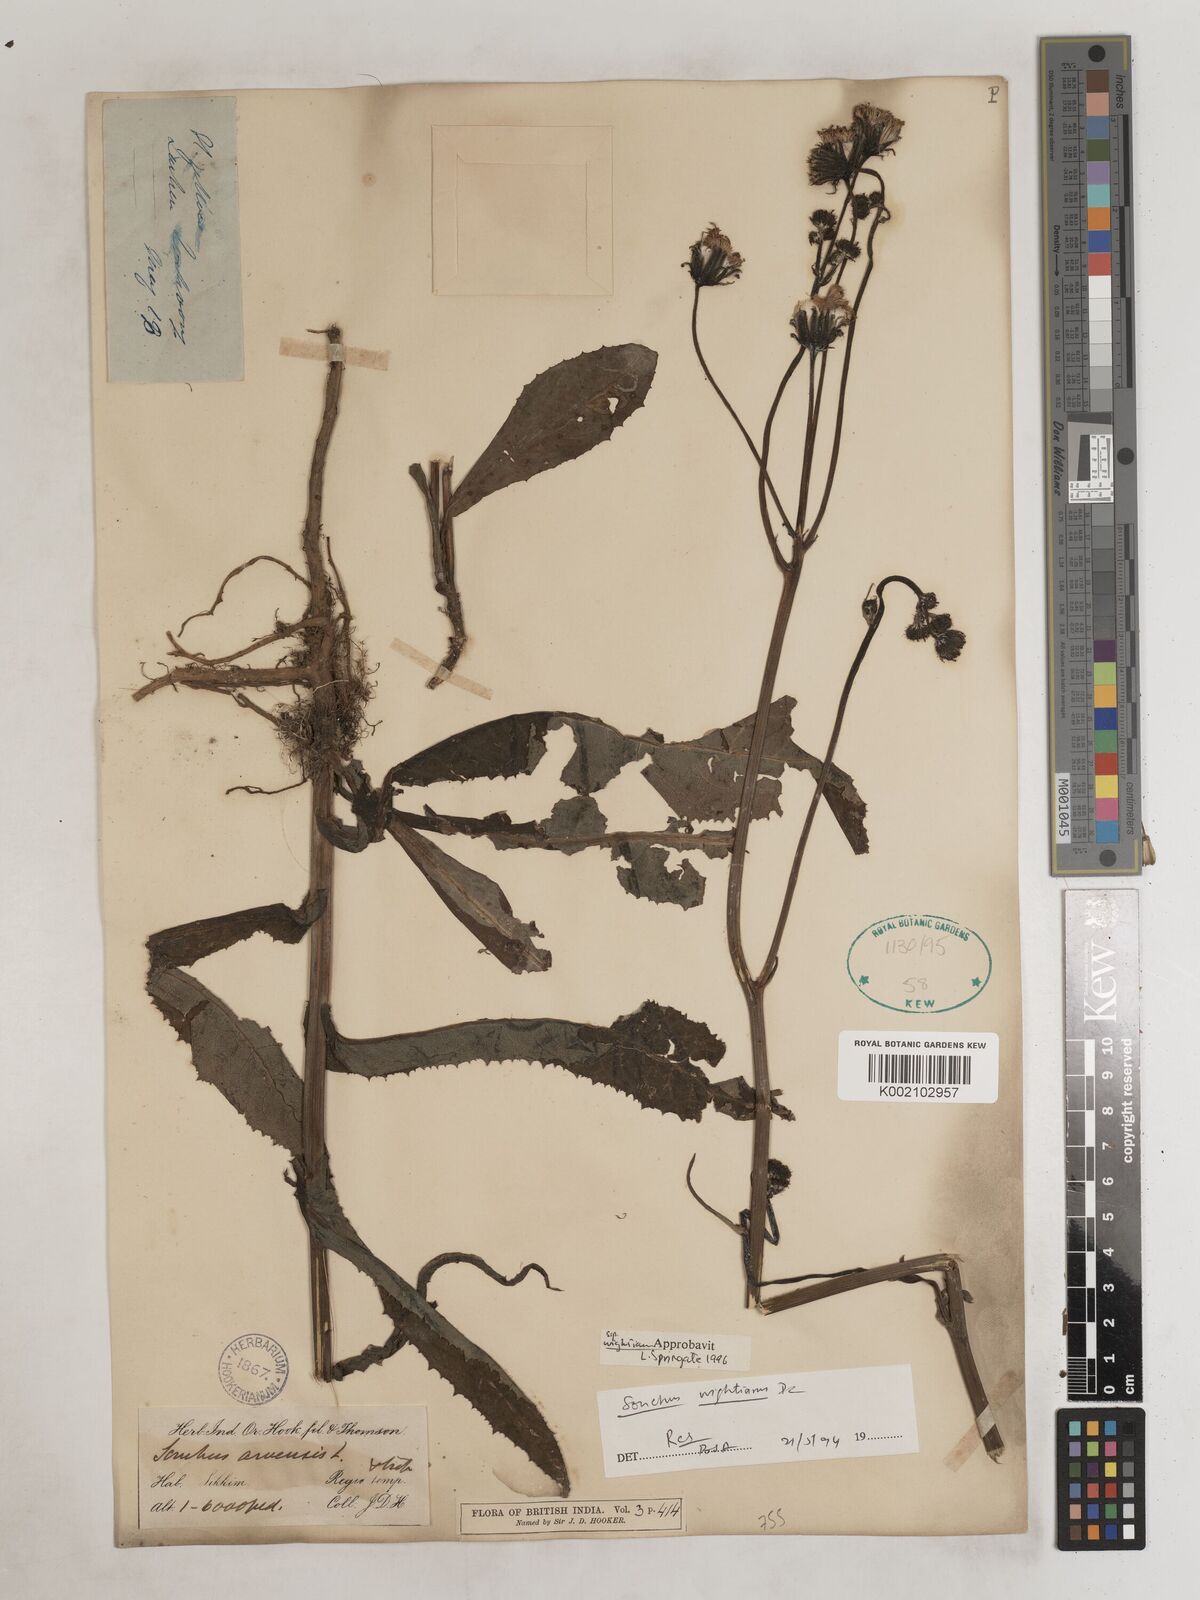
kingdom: Plantae
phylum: Tracheophyta
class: Magnoliopsida
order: Asterales
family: Asteraceae
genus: Sonchus
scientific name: Sonchus arvensis
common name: Perennial sow-thistle
